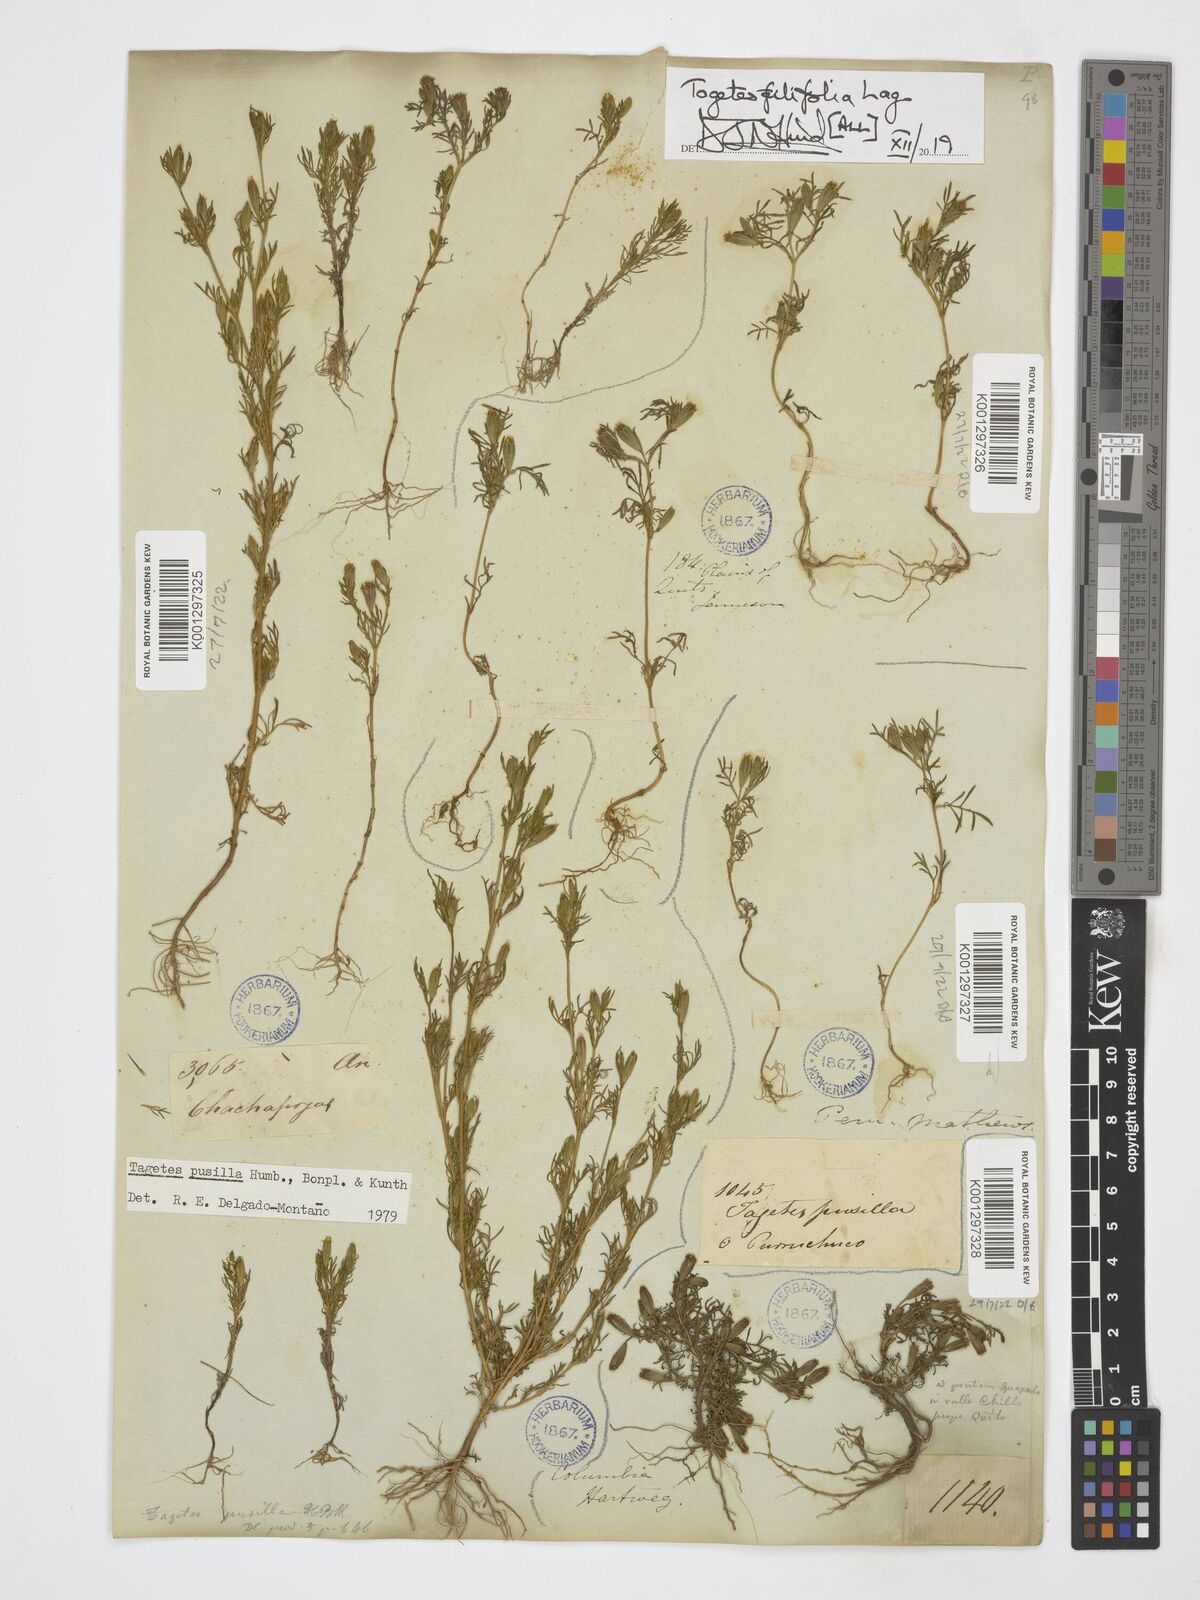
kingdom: Plantae
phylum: Tracheophyta
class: Magnoliopsida
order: Asterales
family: Asteraceae
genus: Tagetes
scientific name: Tagetes filifolia
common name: Lesser marigold
